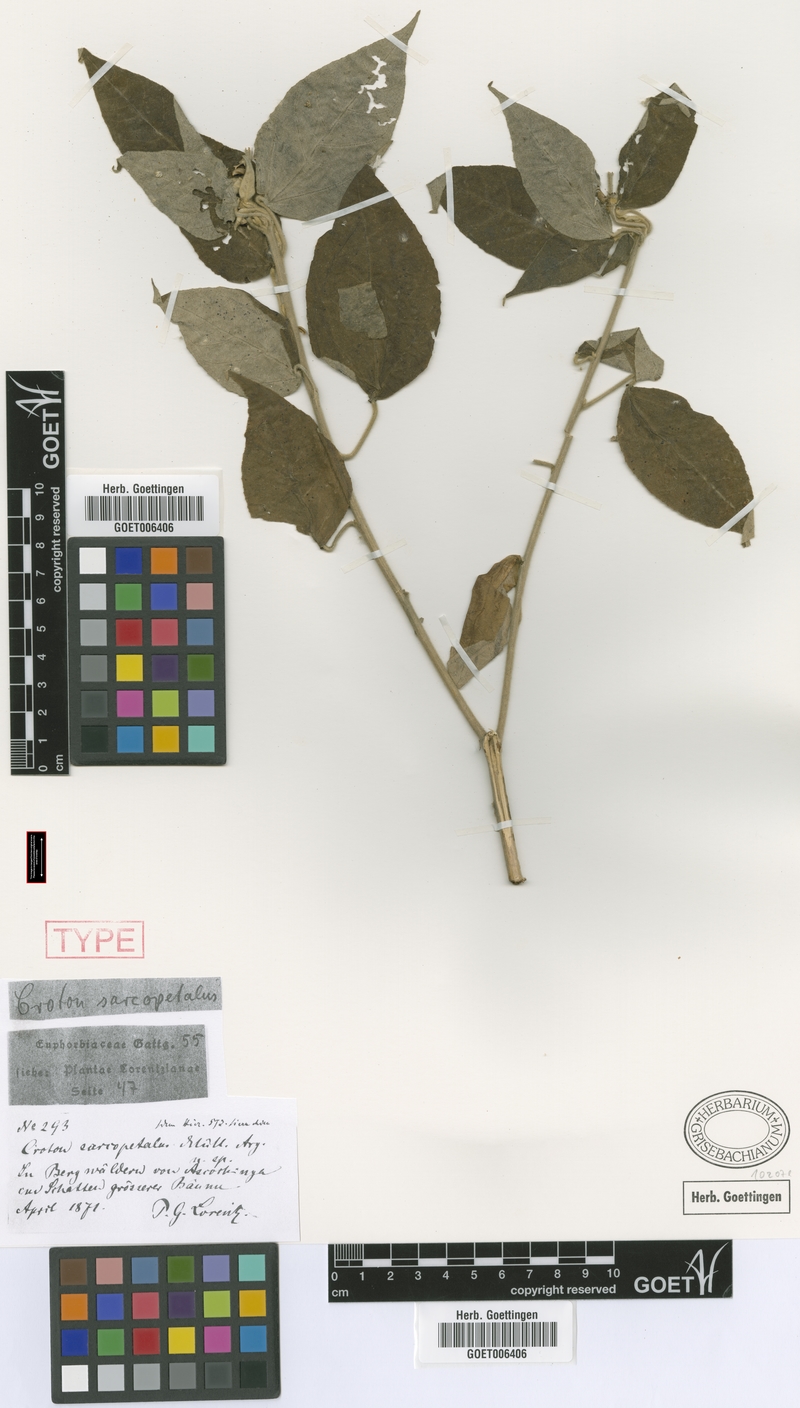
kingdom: Plantae
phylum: Tracheophyta
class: Magnoliopsida
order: Malpighiales
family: Euphorbiaceae
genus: Croton
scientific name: Croton lachnostachyus
